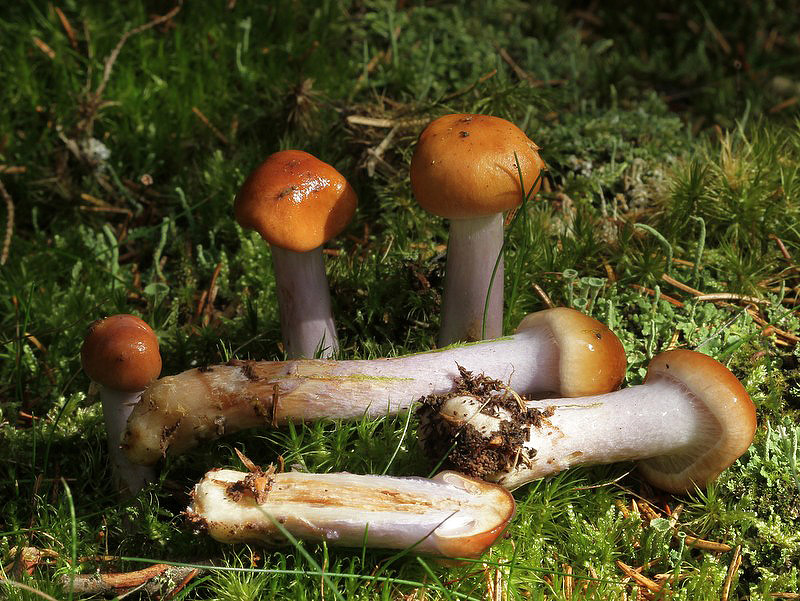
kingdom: Fungi
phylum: Basidiomycota
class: Agaricomycetes
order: Agaricales
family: Cortinariaceae
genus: Cortinarius
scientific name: Cortinarius collinitus
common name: spættet slørhat
